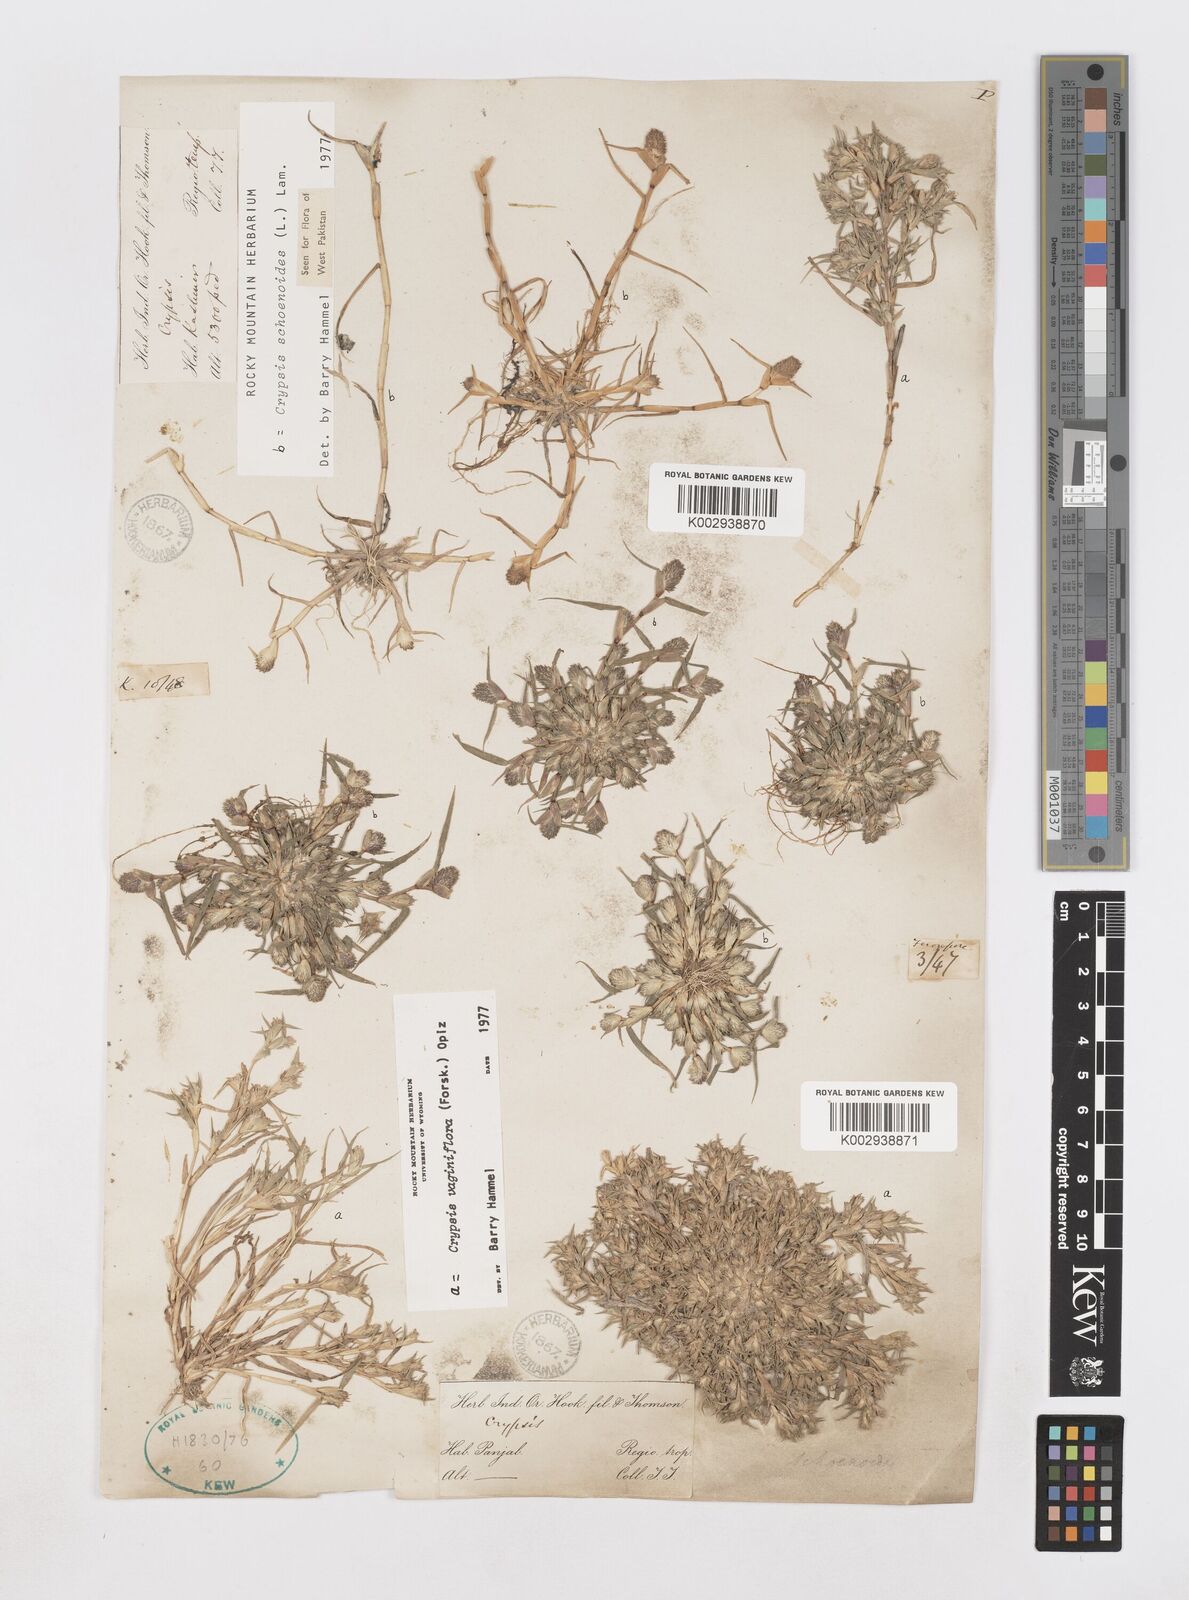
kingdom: Plantae
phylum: Tracheophyta
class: Liliopsida
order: Poales
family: Poaceae
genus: Sporobolus
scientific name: Sporobolus niliacus
